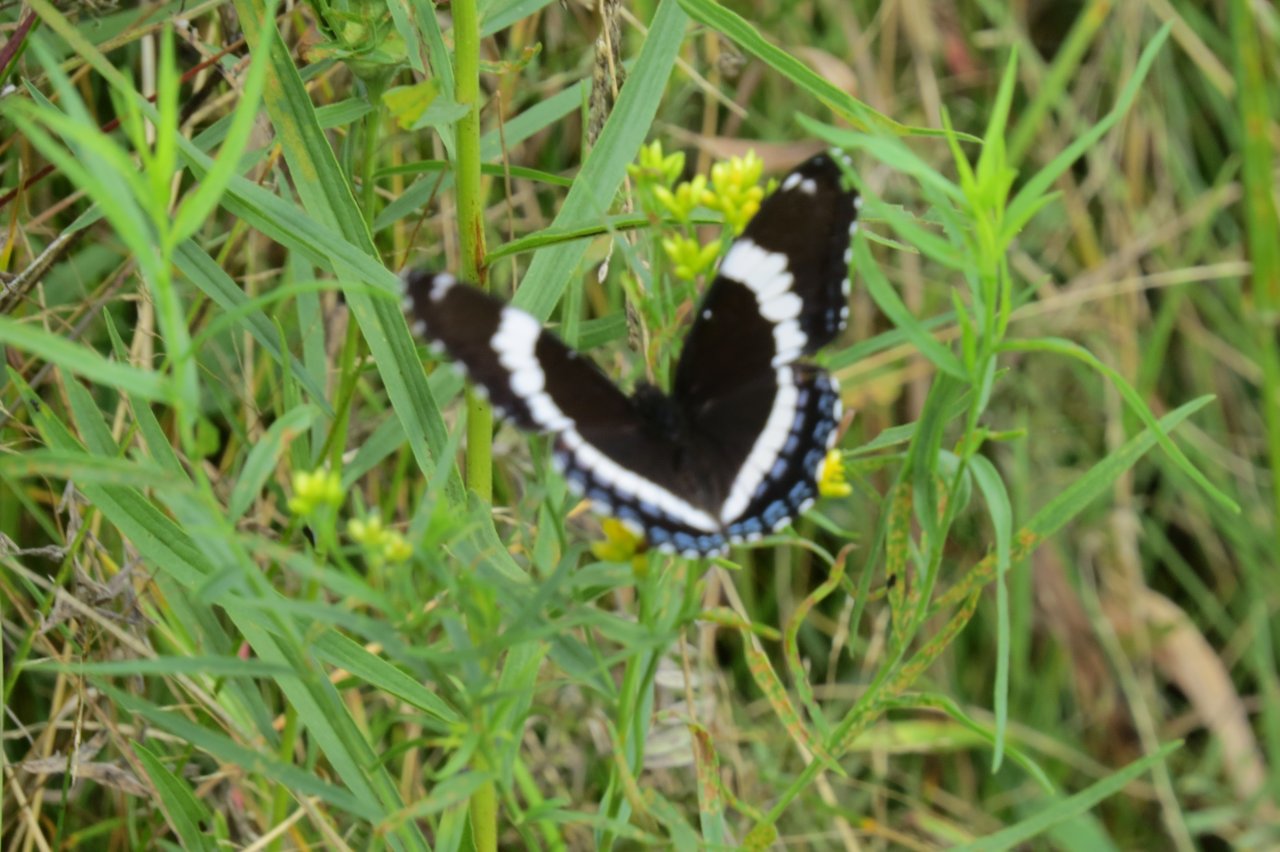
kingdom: Animalia
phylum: Arthropoda
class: Insecta
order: Lepidoptera
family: Nymphalidae
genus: Limenitis
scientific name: Limenitis arthemis
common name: Red-spotted Admiral
